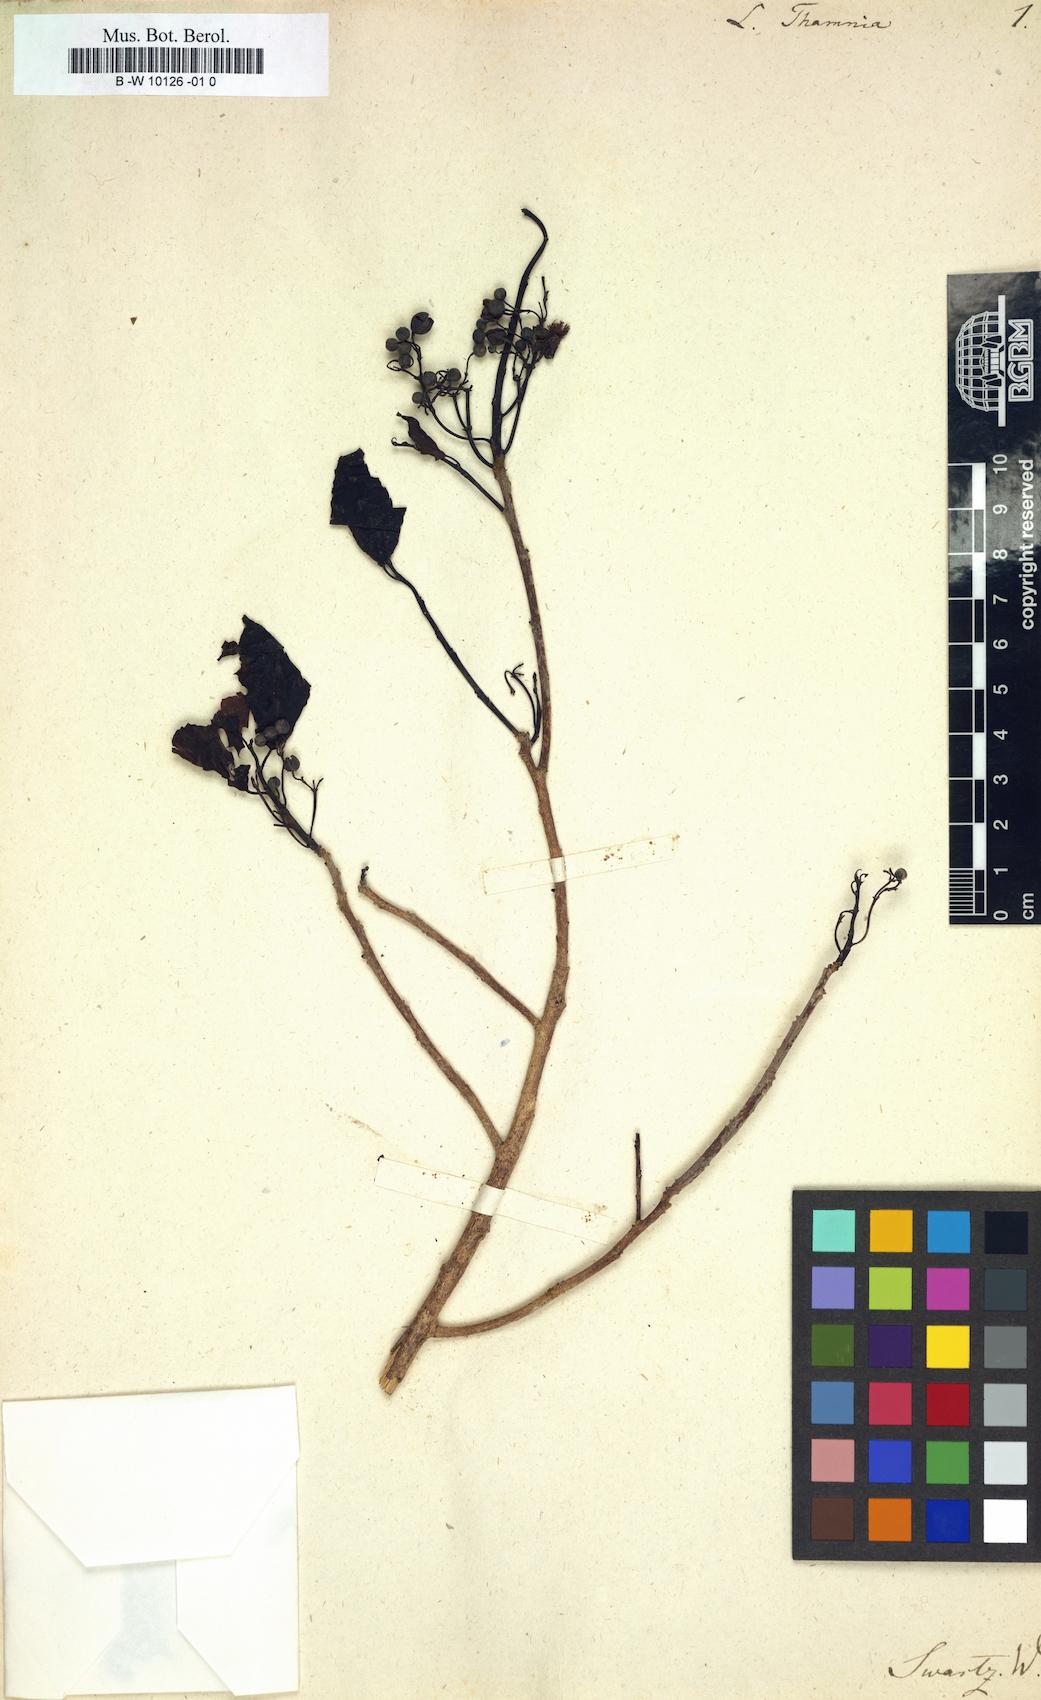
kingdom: Plantae
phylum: Tracheophyta
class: Magnoliopsida
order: Malpighiales
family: Flacourtiaceae
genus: Laetia
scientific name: Laetia thamnia
